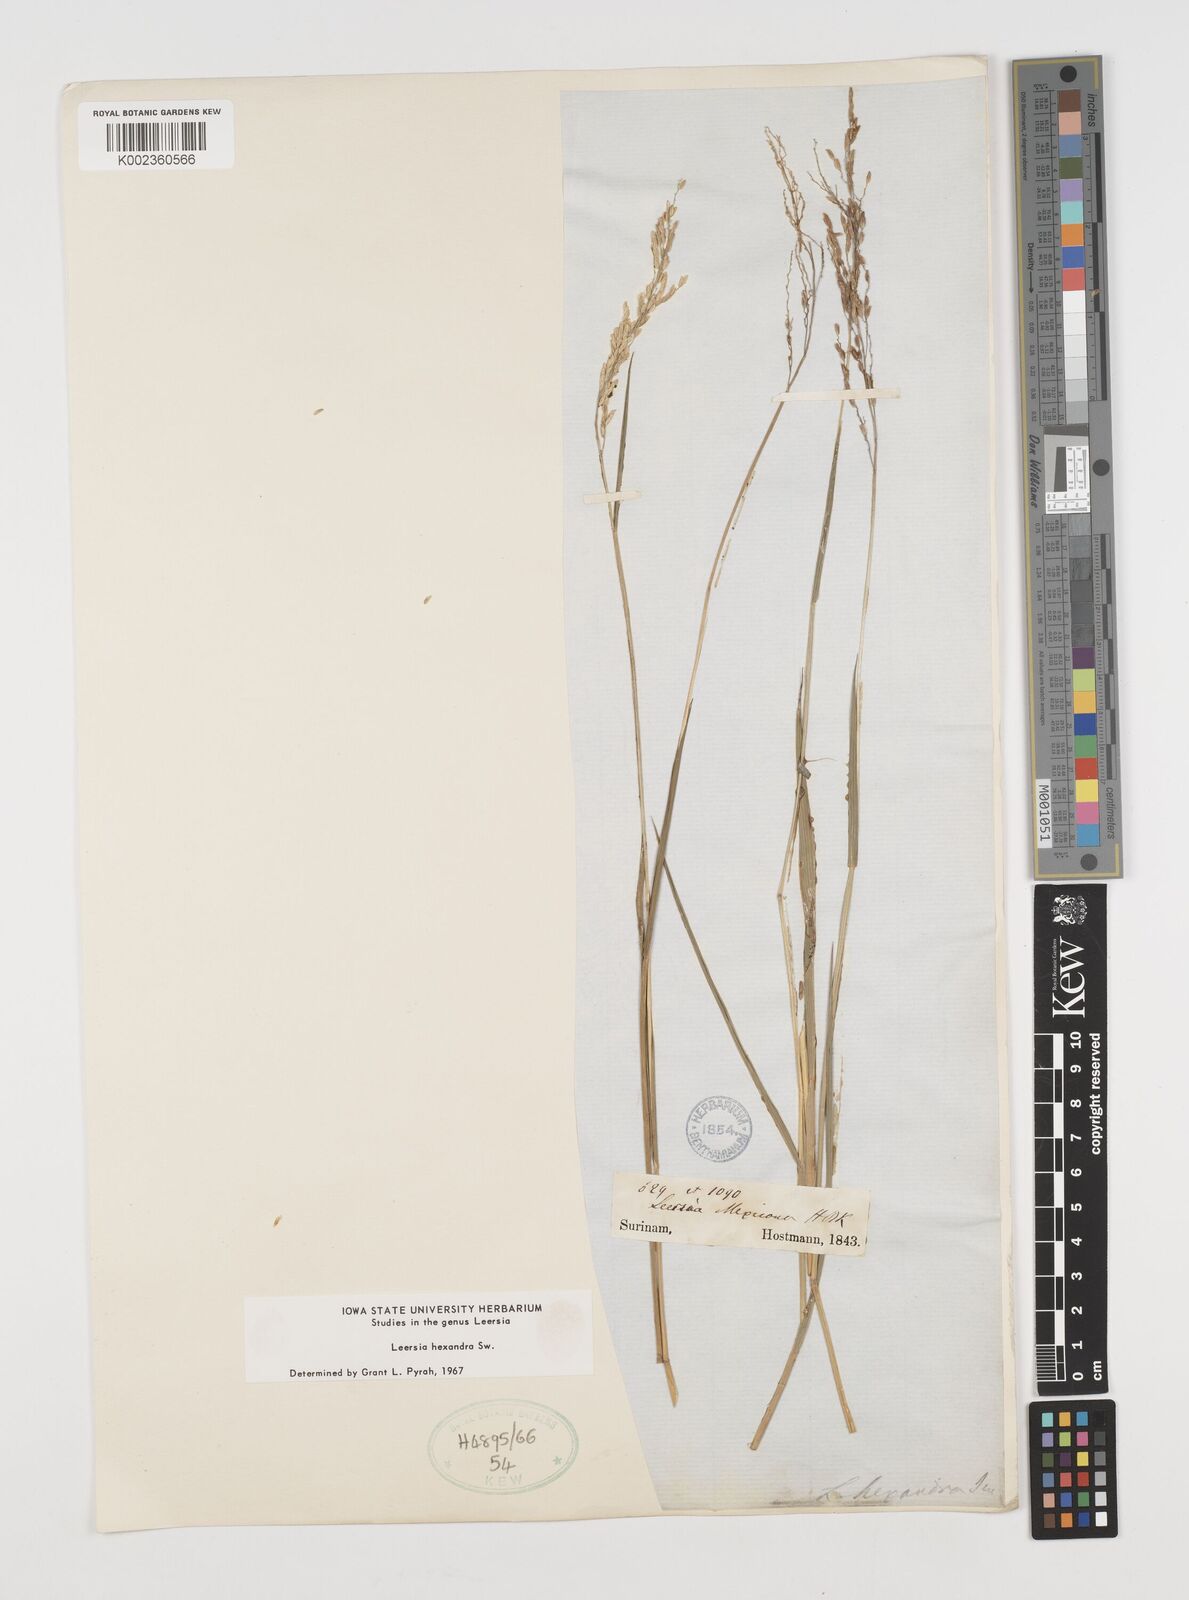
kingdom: Plantae
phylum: Tracheophyta
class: Liliopsida
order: Poales
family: Poaceae
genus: Leersia
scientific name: Leersia hexandra
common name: Southern cut grass
